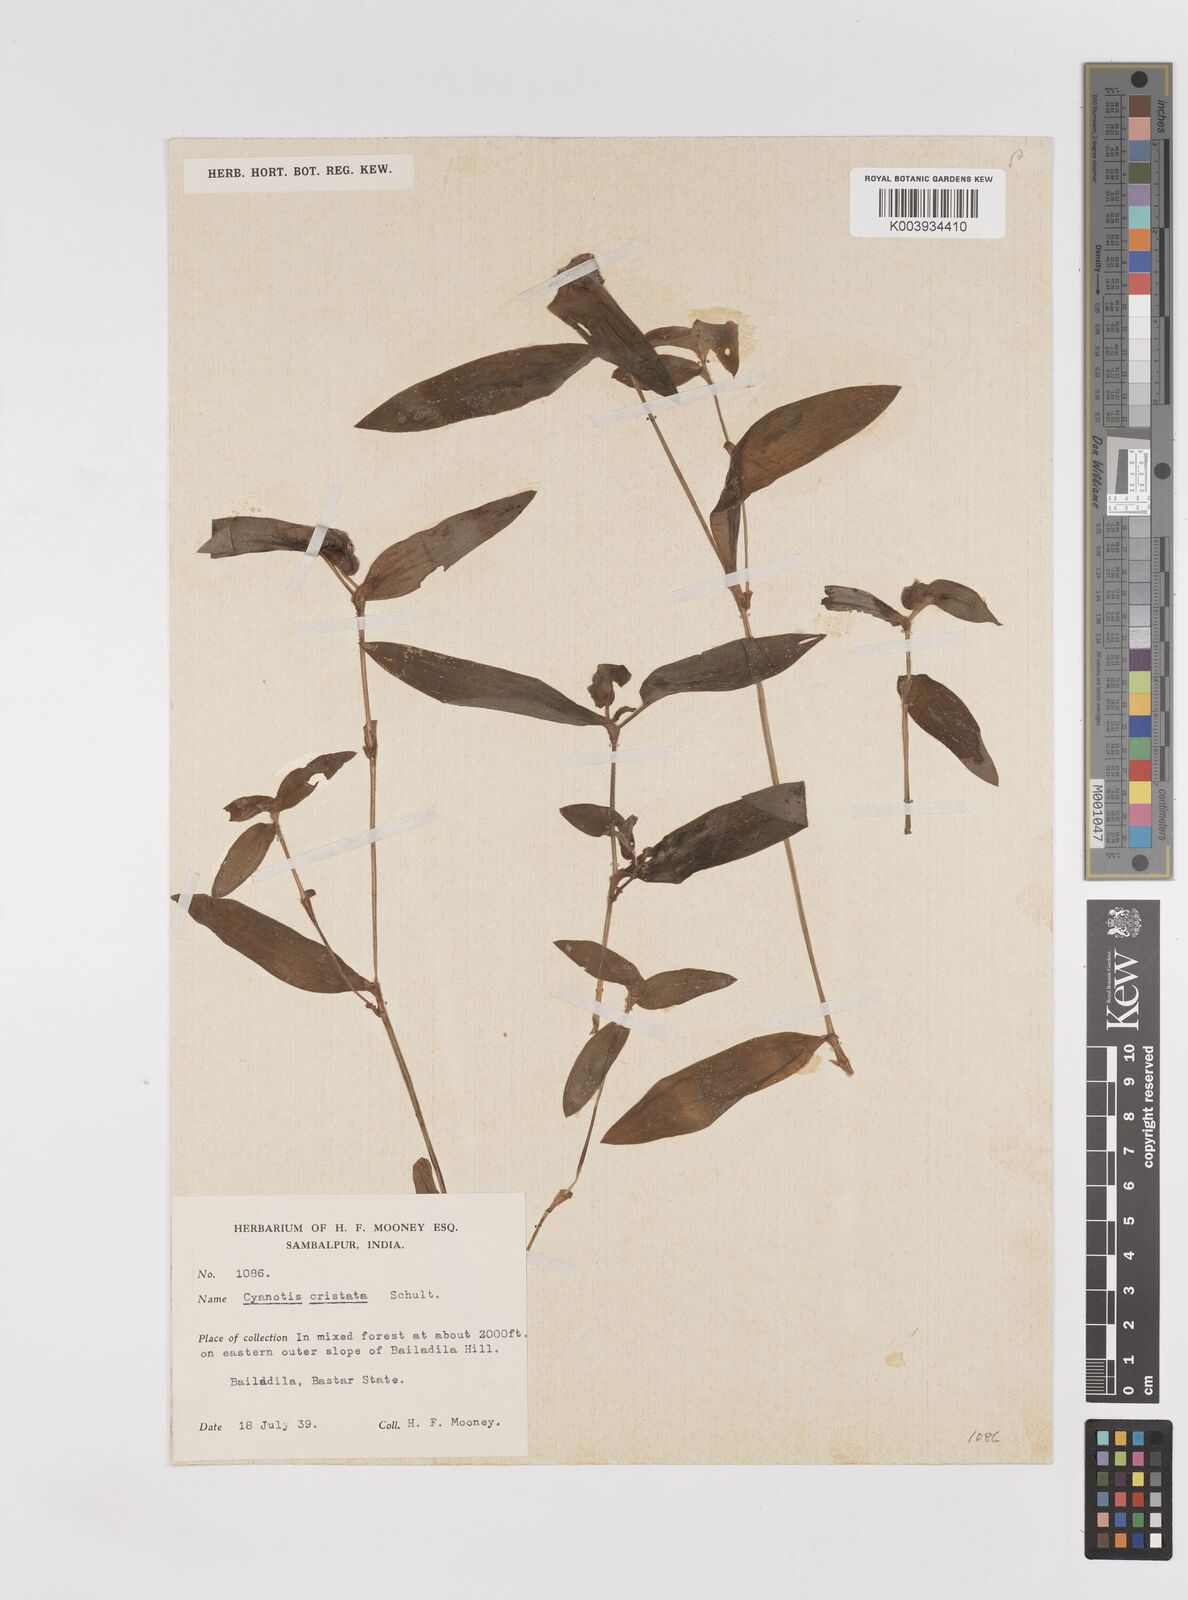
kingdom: Plantae
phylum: Tracheophyta
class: Liliopsida
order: Commelinales
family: Commelinaceae
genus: Cyanotis
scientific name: Cyanotis cristata
